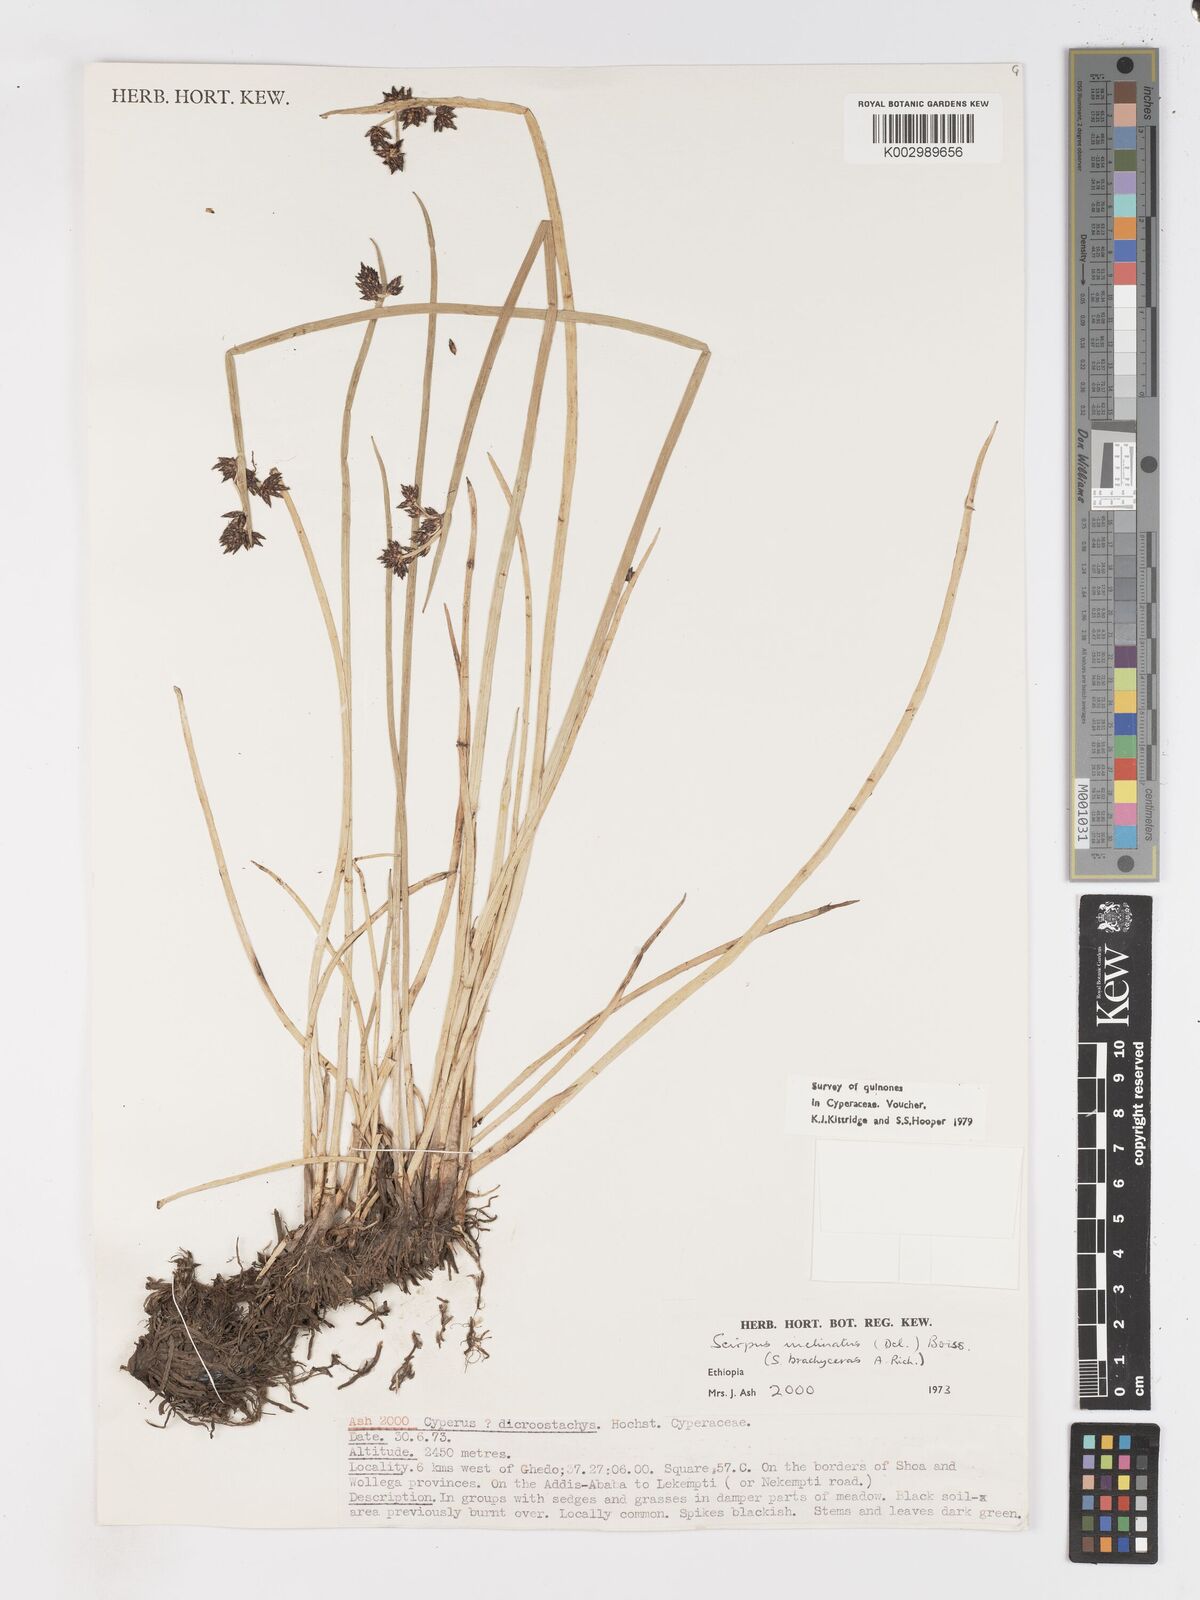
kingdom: Plantae
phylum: Tracheophyta
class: Liliopsida
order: Poales
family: Cyperaceae
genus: Schoenoplectiella
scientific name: Schoenoplectiella brachyceras
